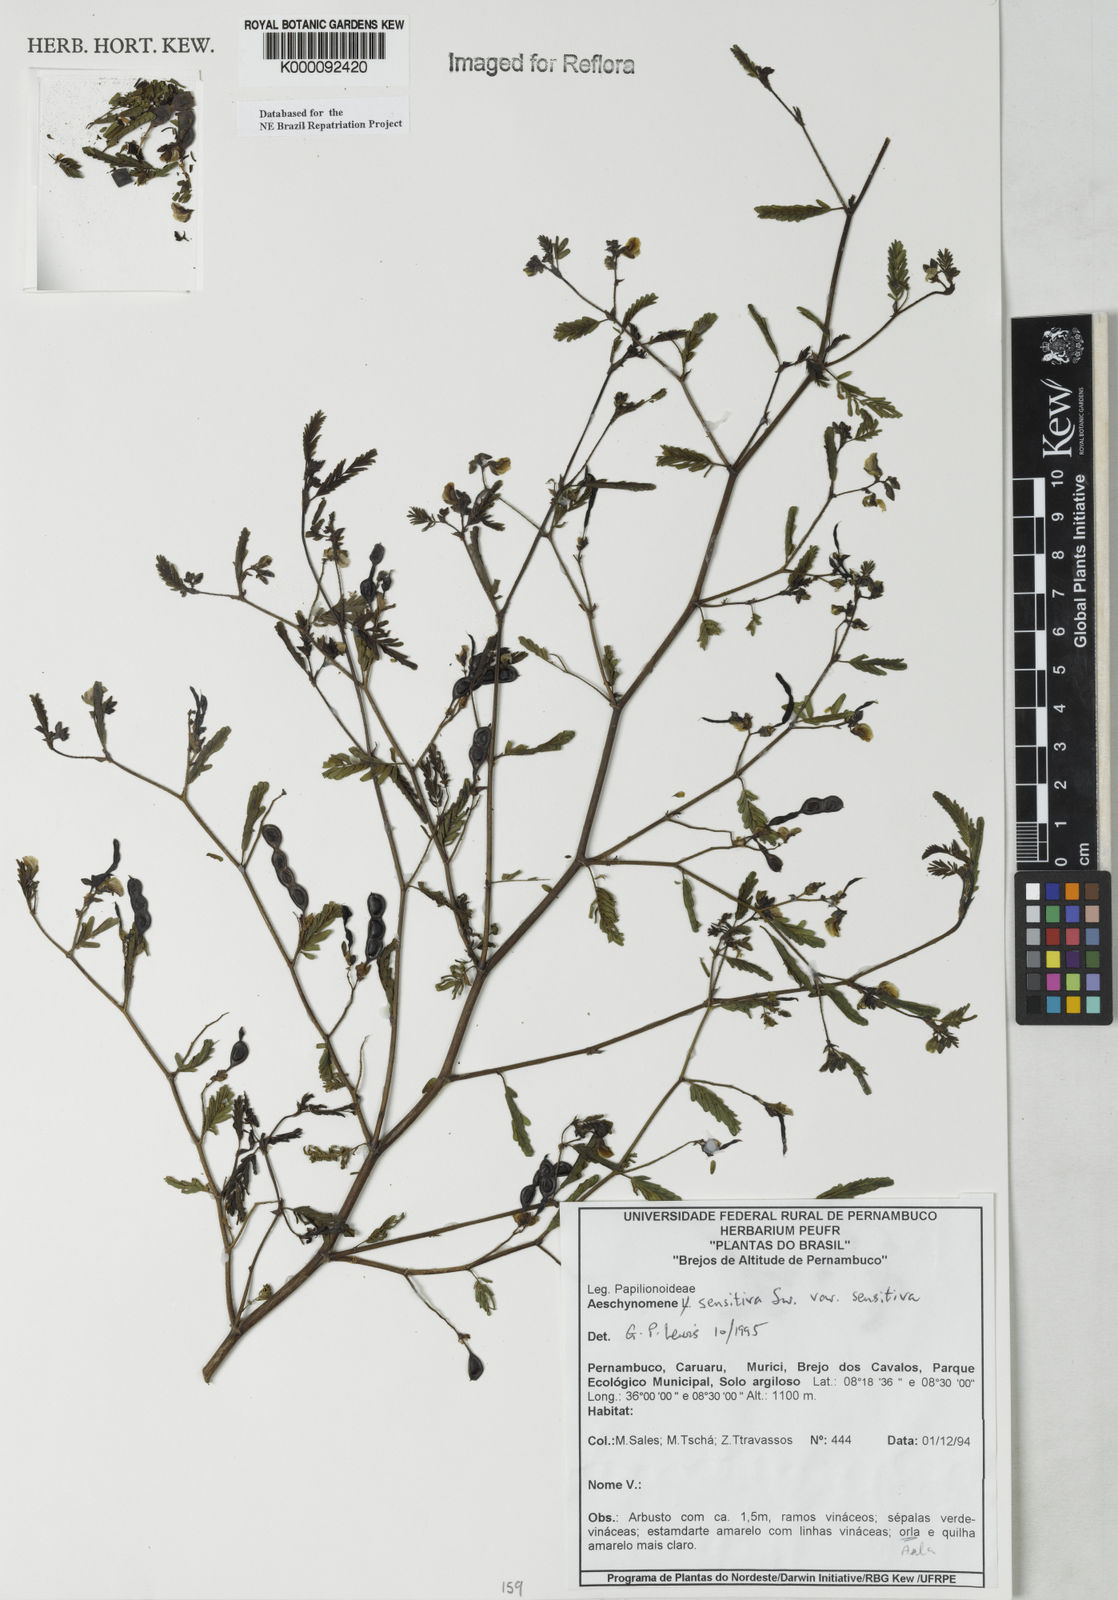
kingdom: Plantae
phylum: Tracheophyta
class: Magnoliopsida
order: Fabales
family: Fabaceae
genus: Aeschynomene
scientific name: Aeschynomene sensitiva
